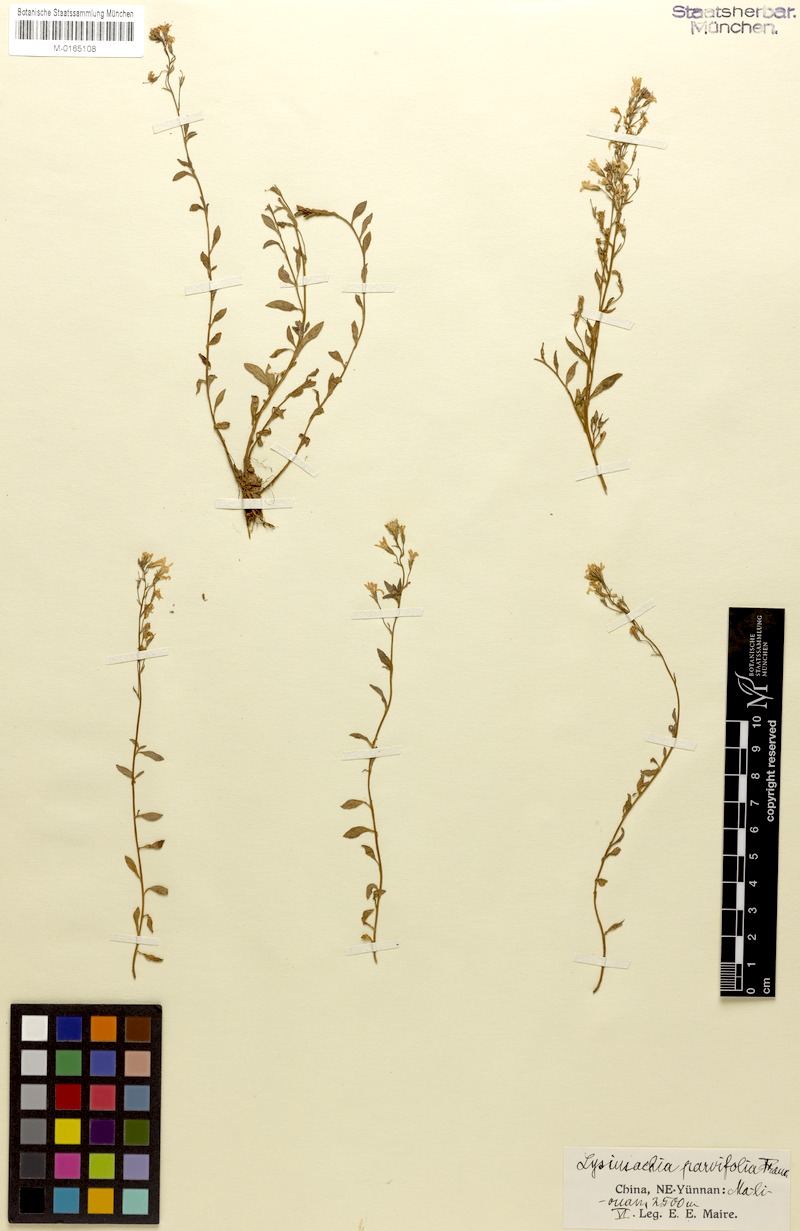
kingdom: Plantae
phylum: Tracheophyta
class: Magnoliopsida
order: Ericales
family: Primulaceae
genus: Lysimachia
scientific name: Lysimachia parvifolia
